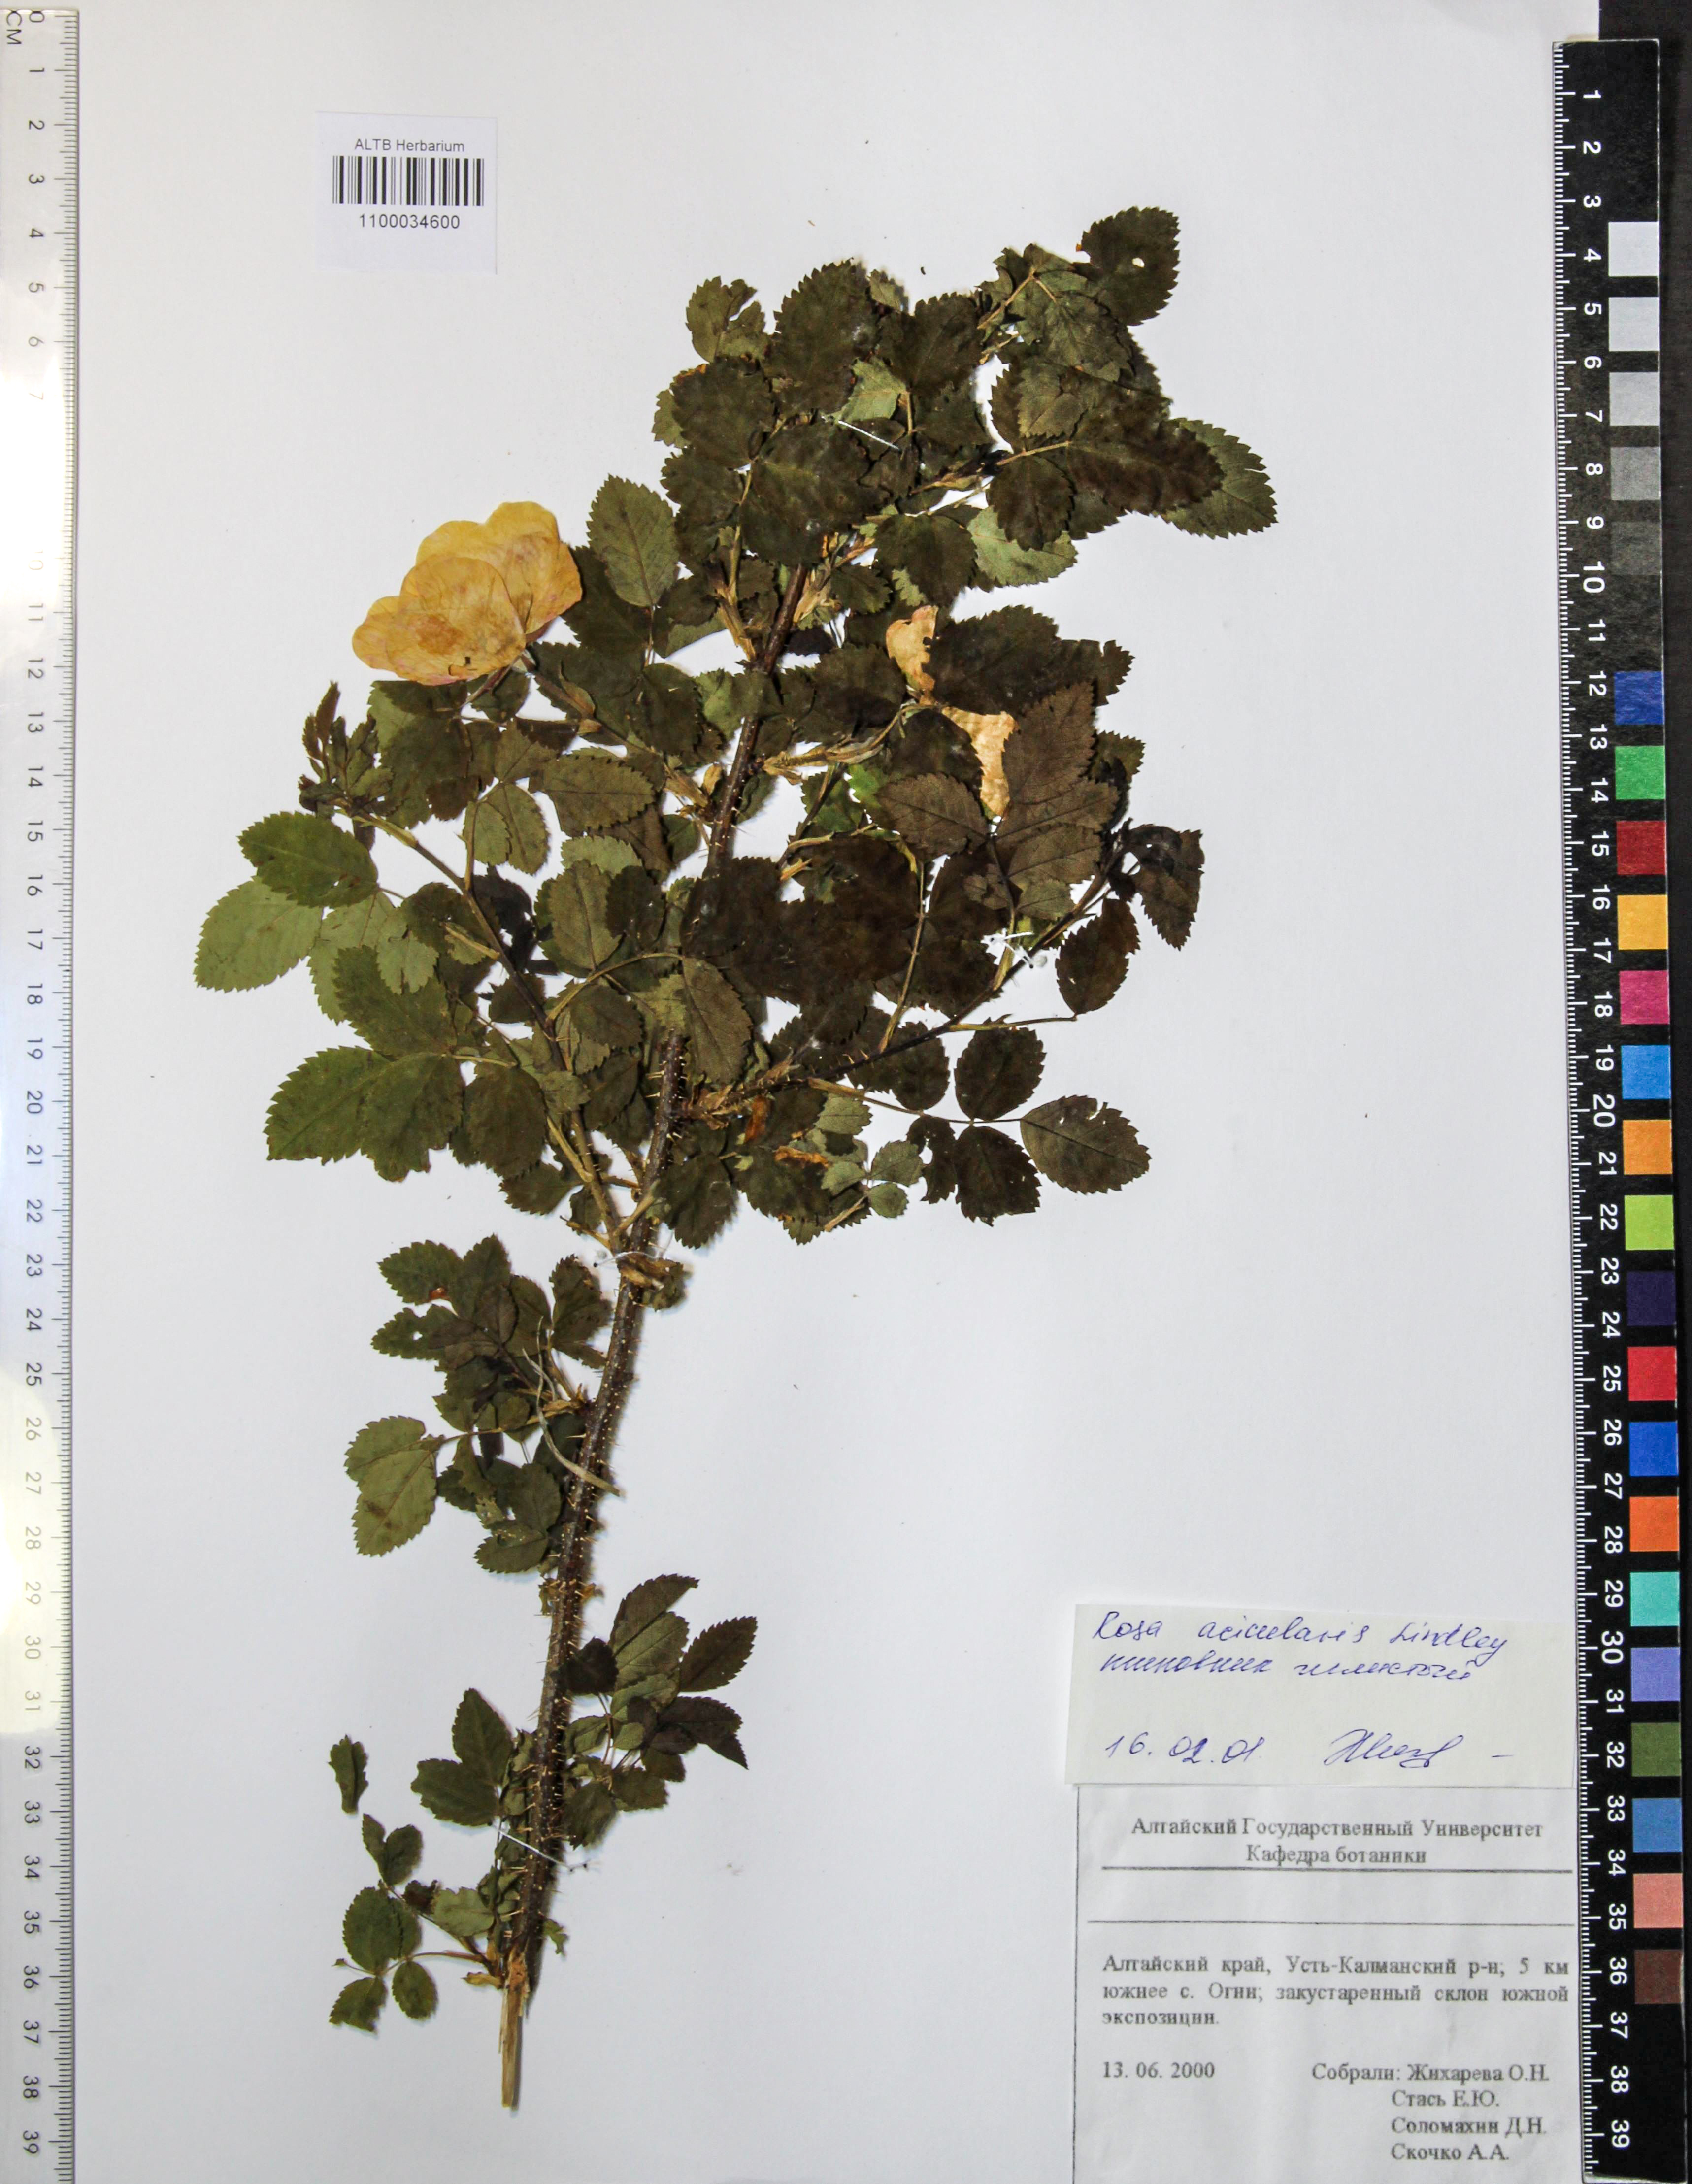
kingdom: Plantae
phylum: Tracheophyta
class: Magnoliopsida
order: Rosales
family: Rosaceae
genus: Rosa
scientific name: Rosa acicularis
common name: Prickly rose
